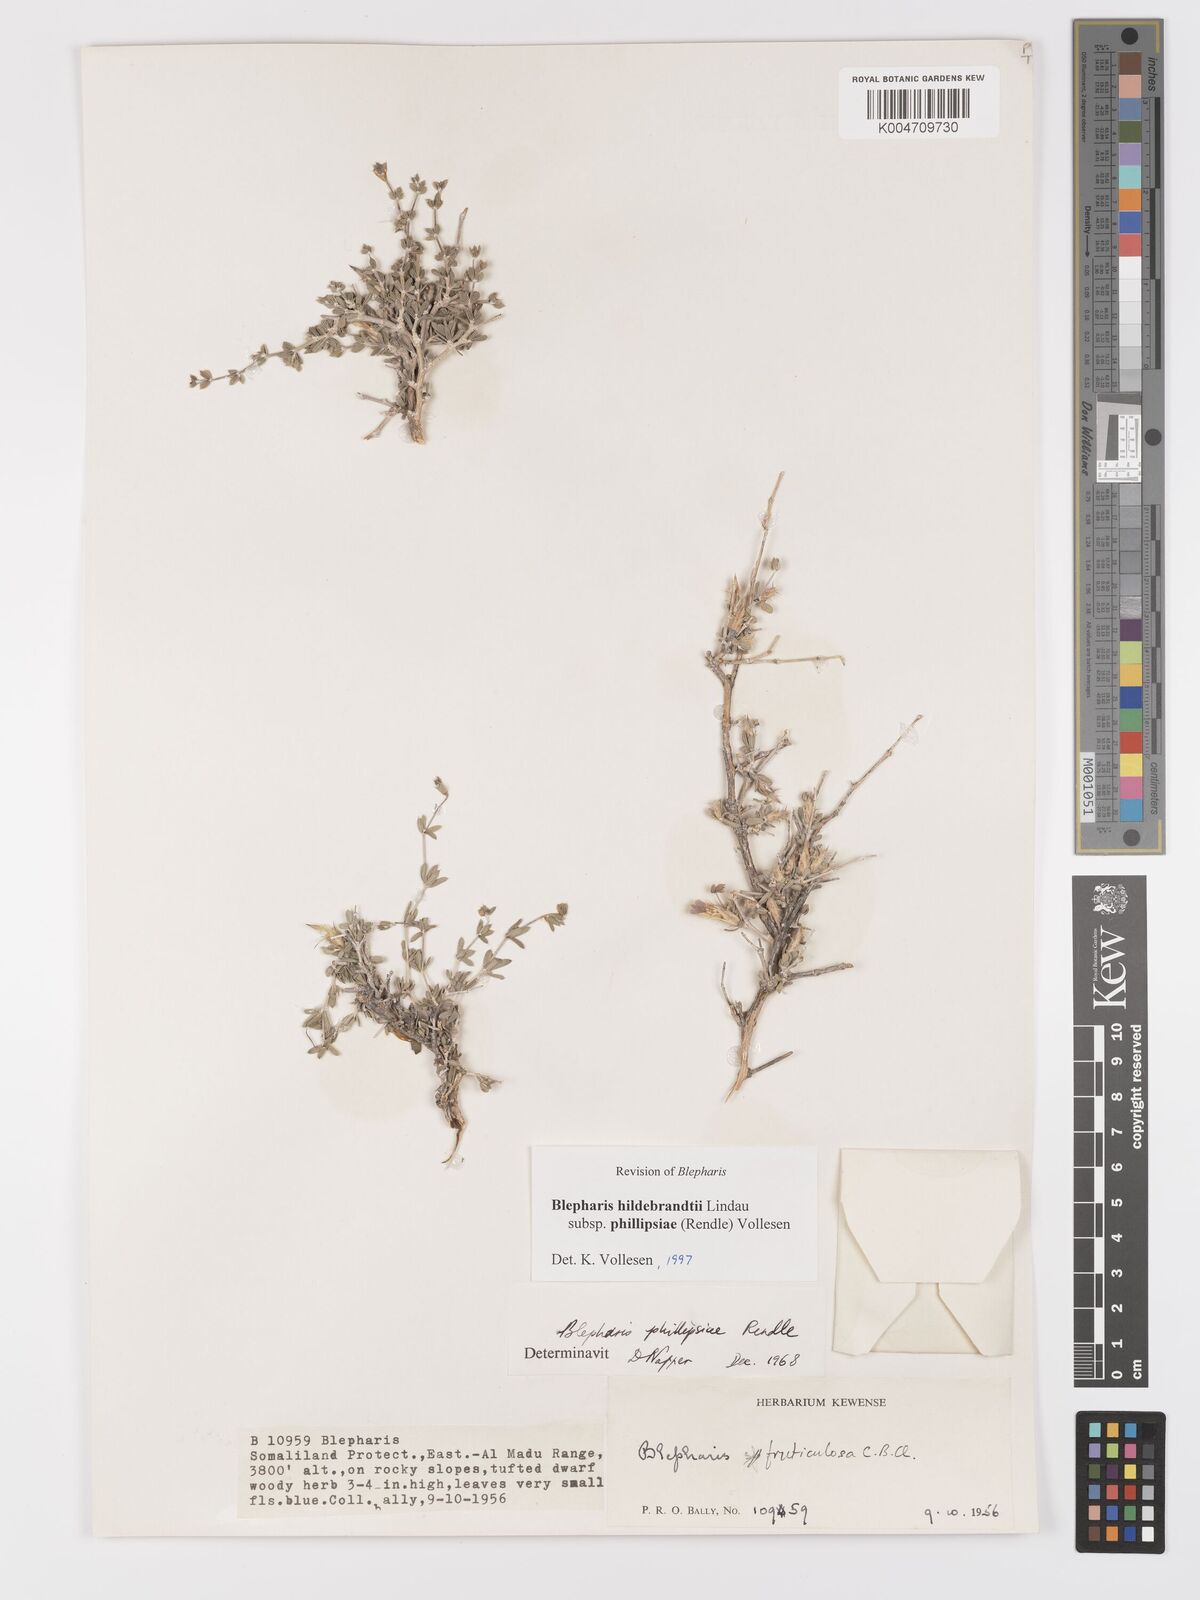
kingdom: Plantae
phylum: Tracheophyta
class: Magnoliopsida
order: Lamiales
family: Acanthaceae
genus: Blepharis
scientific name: Blepharis hildebrandtii
